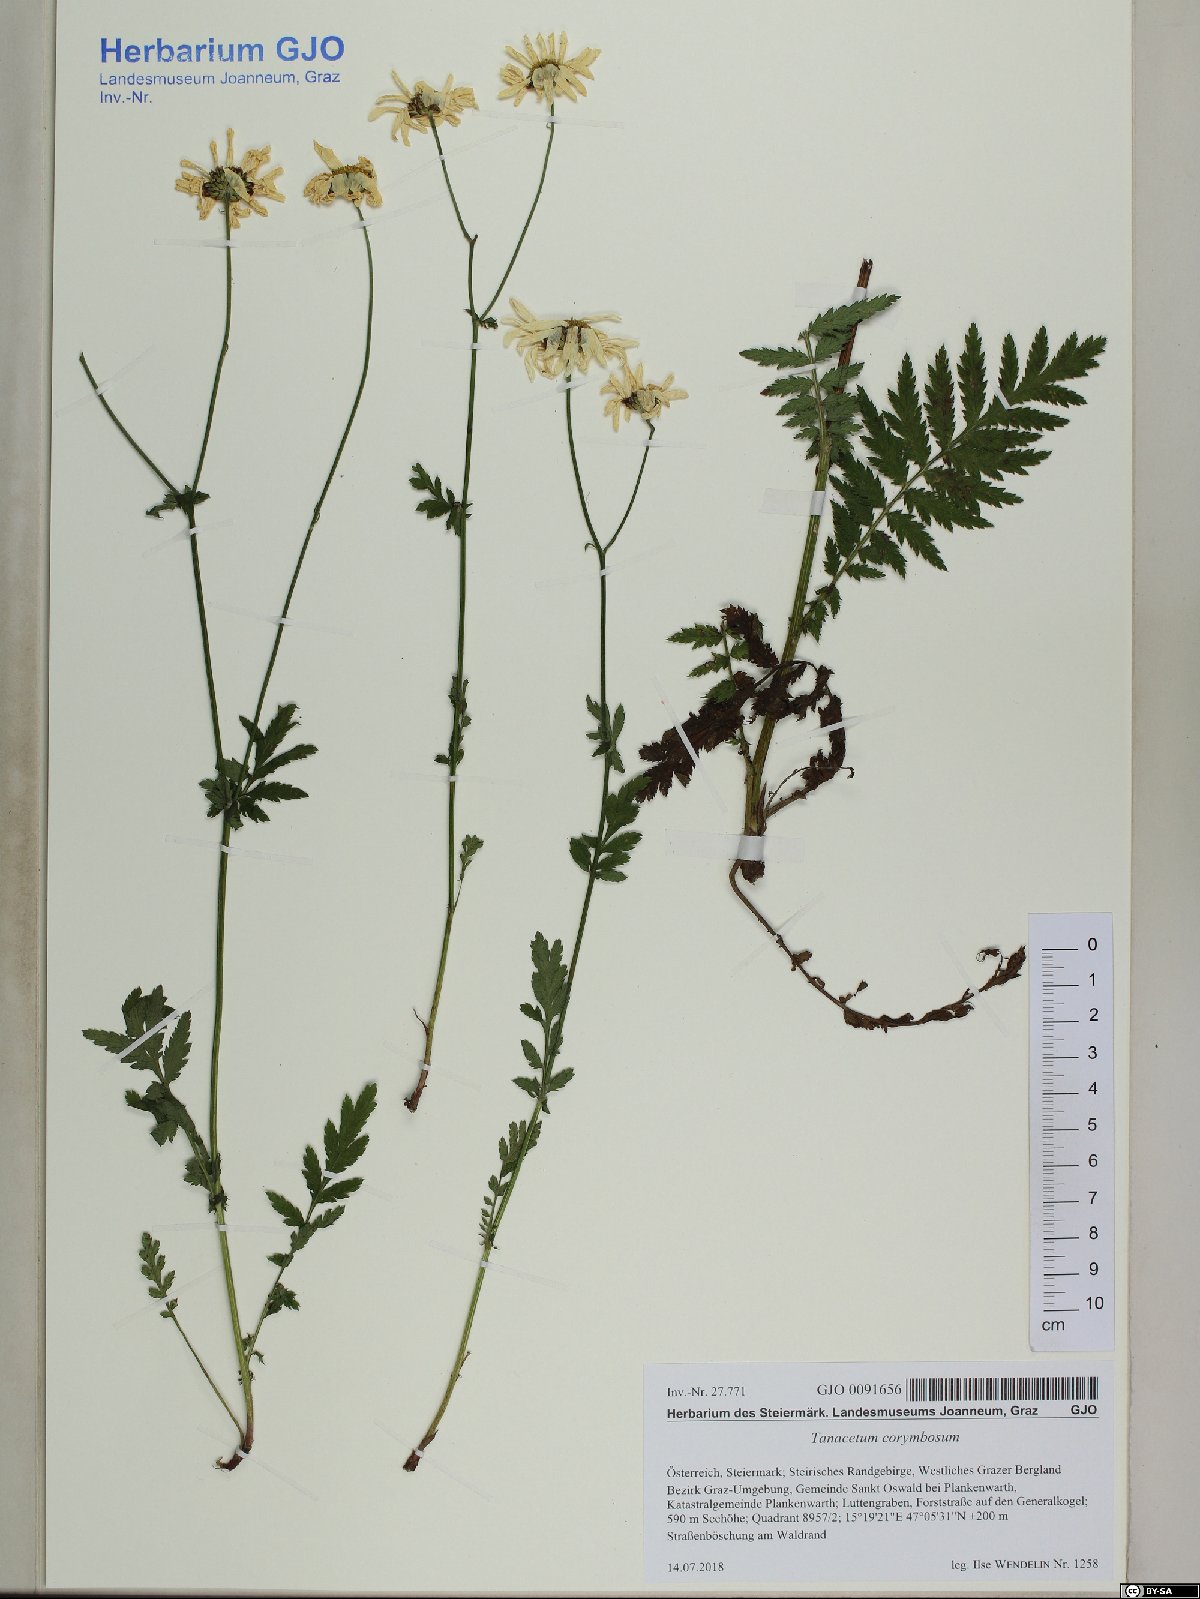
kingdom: Plantae
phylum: Tracheophyta
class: Magnoliopsida
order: Asterales
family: Asteraceae
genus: Tanacetum
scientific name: Tanacetum corymbosum
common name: Scentless feverfew
